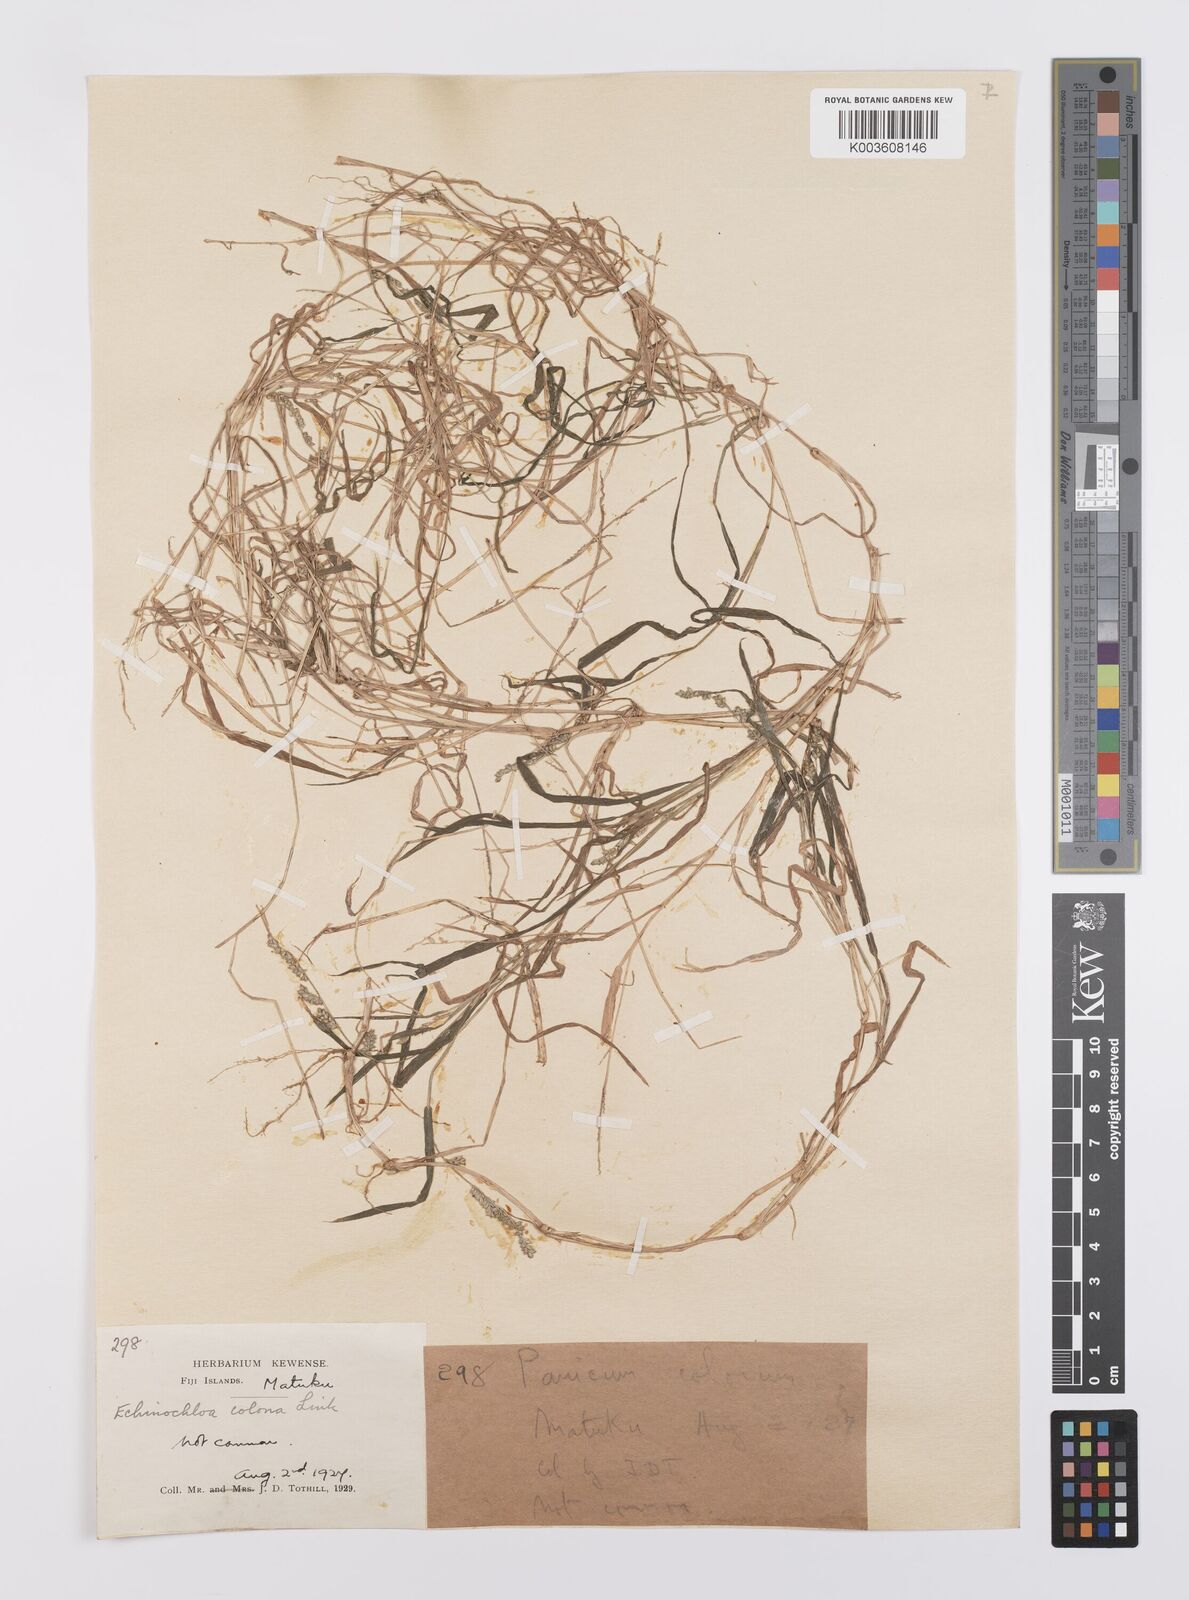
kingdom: Plantae
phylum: Tracheophyta
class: Liliopsida
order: Poales
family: Poaceae
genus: Echinochloa
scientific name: Echinochloa colonum
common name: Jungle rice
